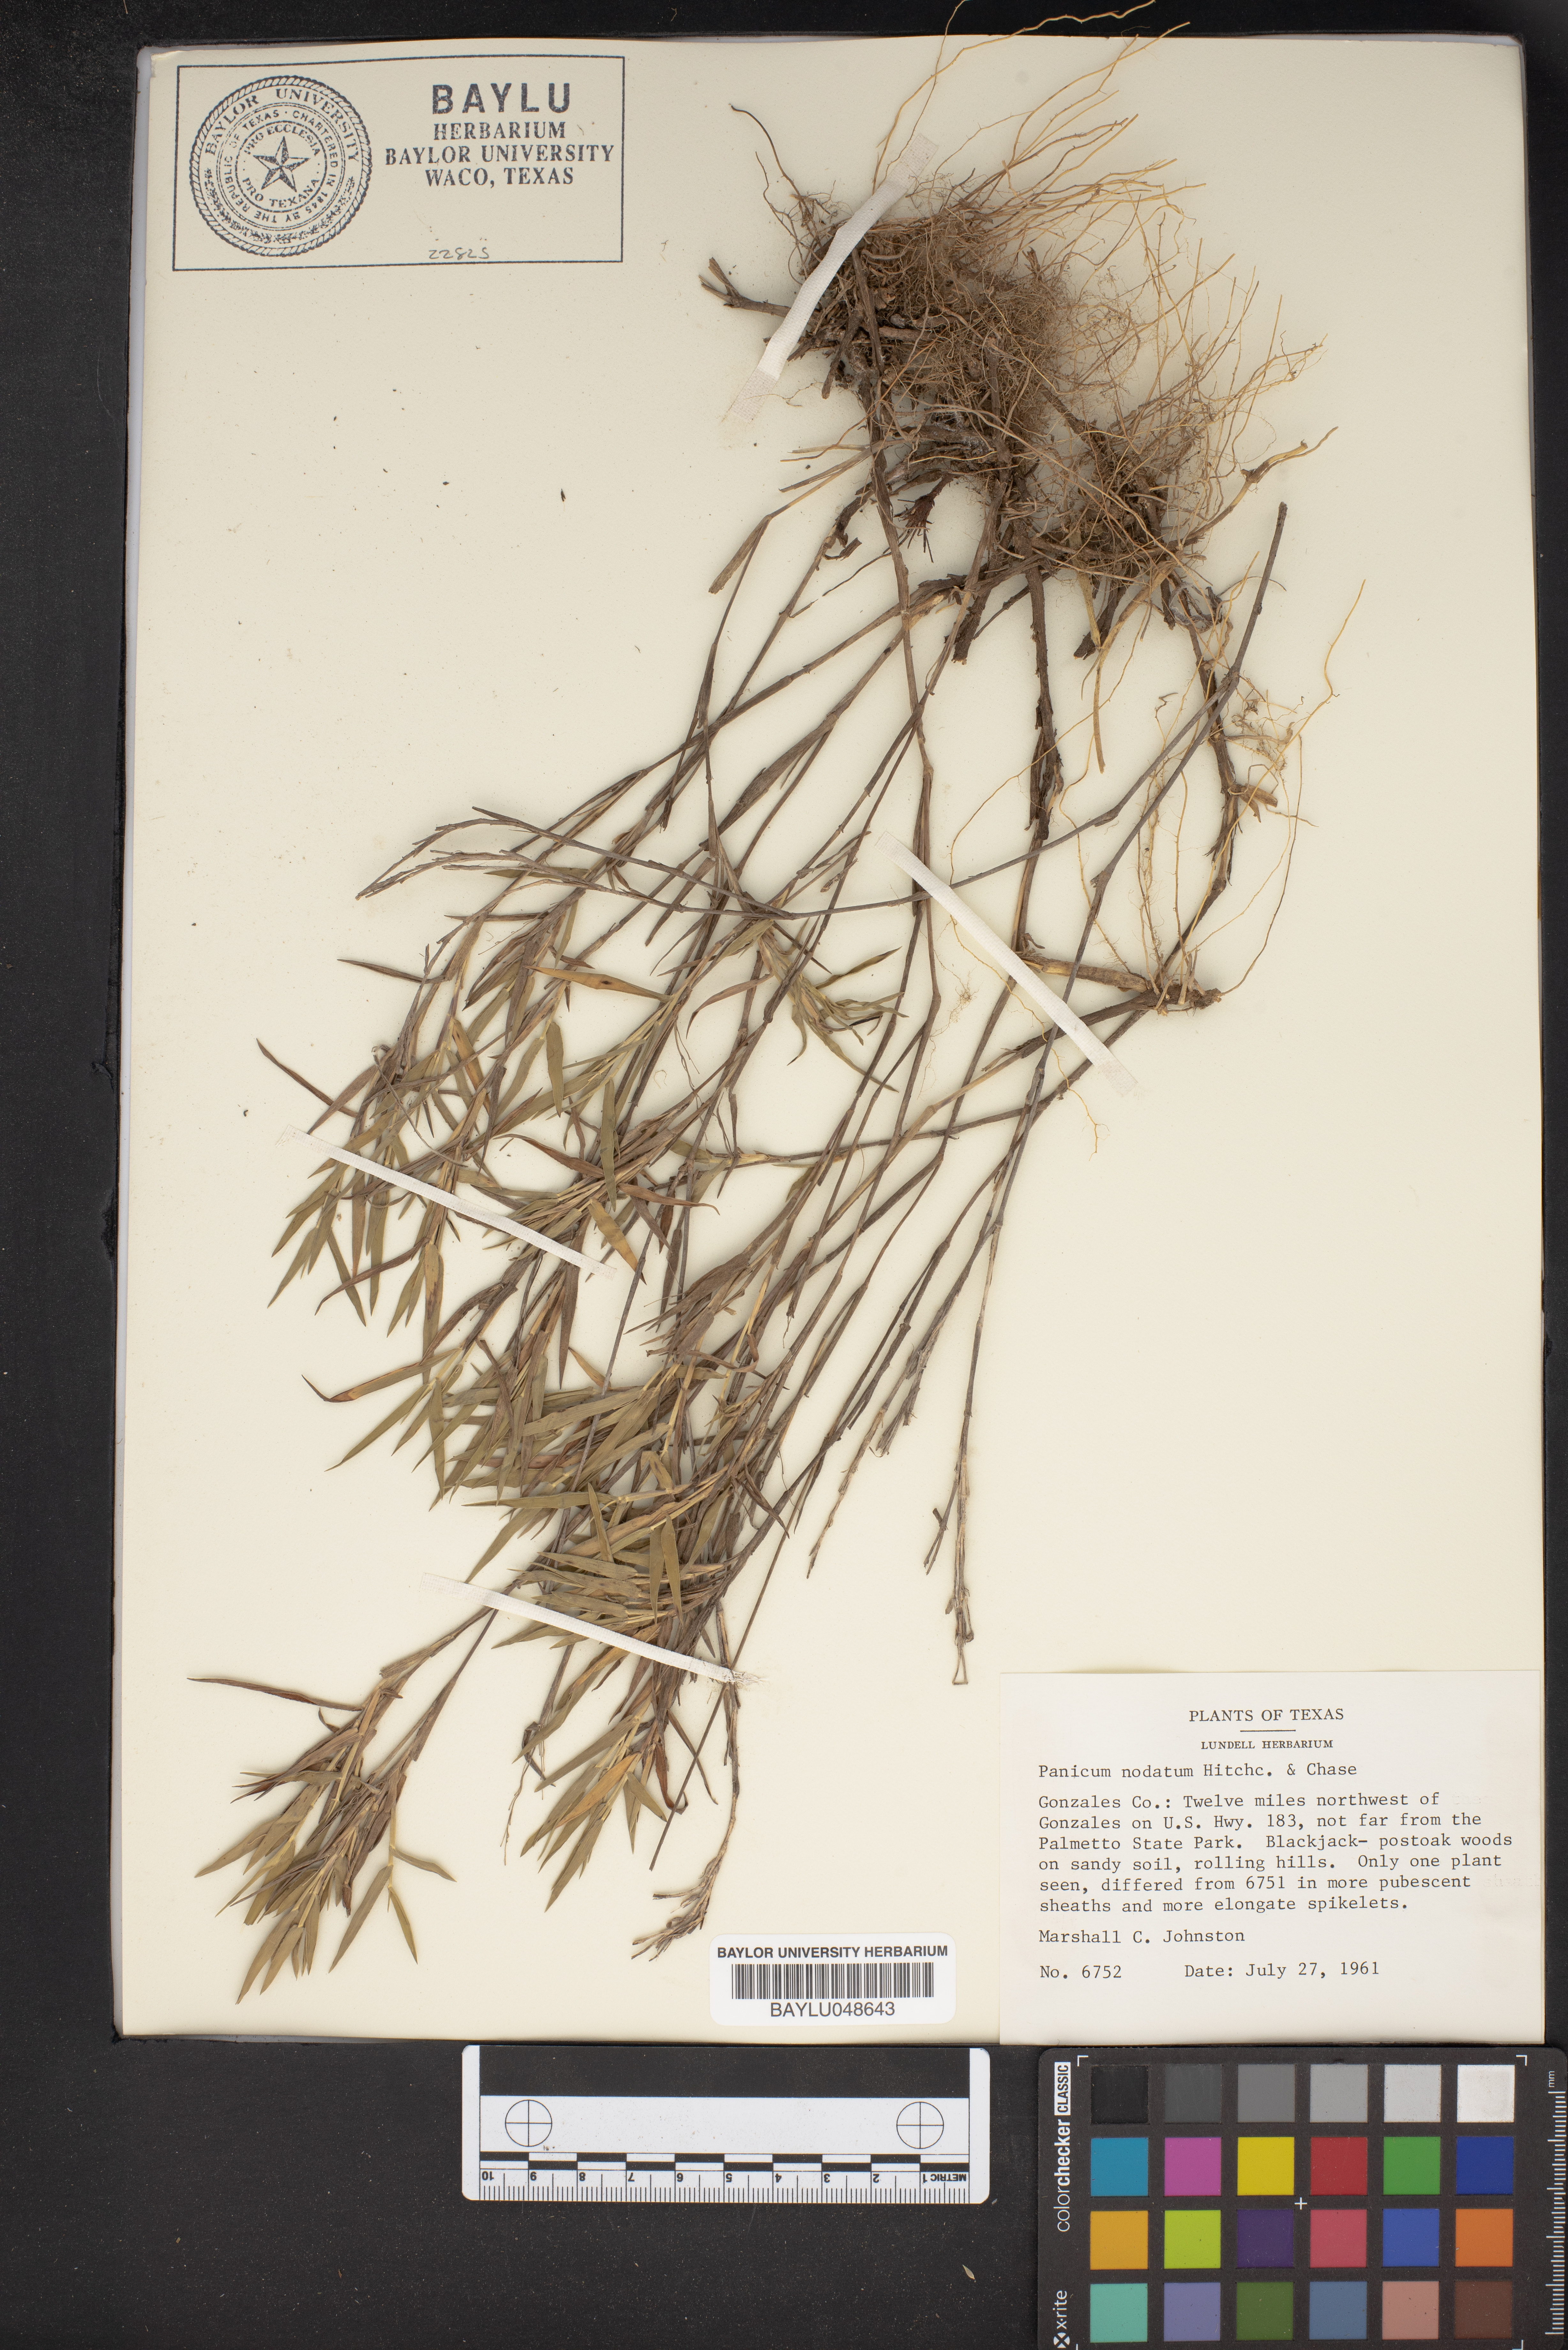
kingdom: Plantae
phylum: Tracheophyta
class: Liliopsida
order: Poales
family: Poaceae
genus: Dichanthelium
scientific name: Dichanthelium nodatum
